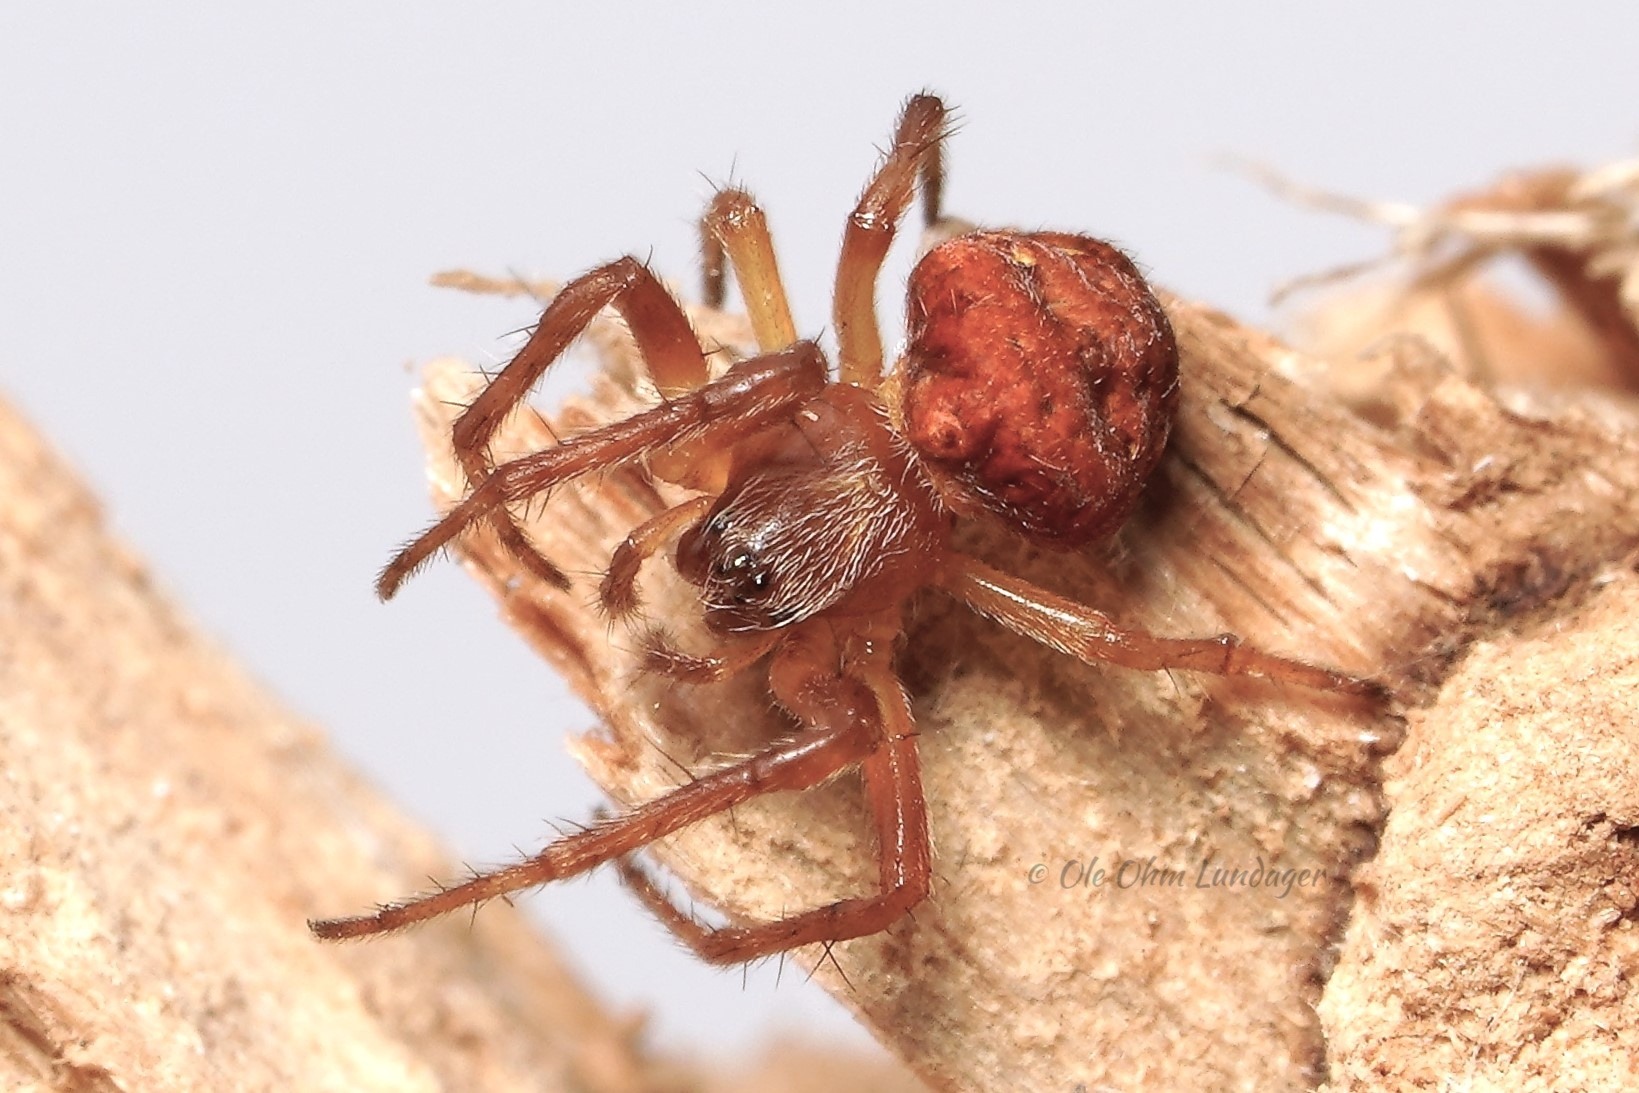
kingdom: Animalia
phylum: Arthropoda
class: Arachnida
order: Araneae
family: Araneidae
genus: Araneus
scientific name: Araneus sturmi
